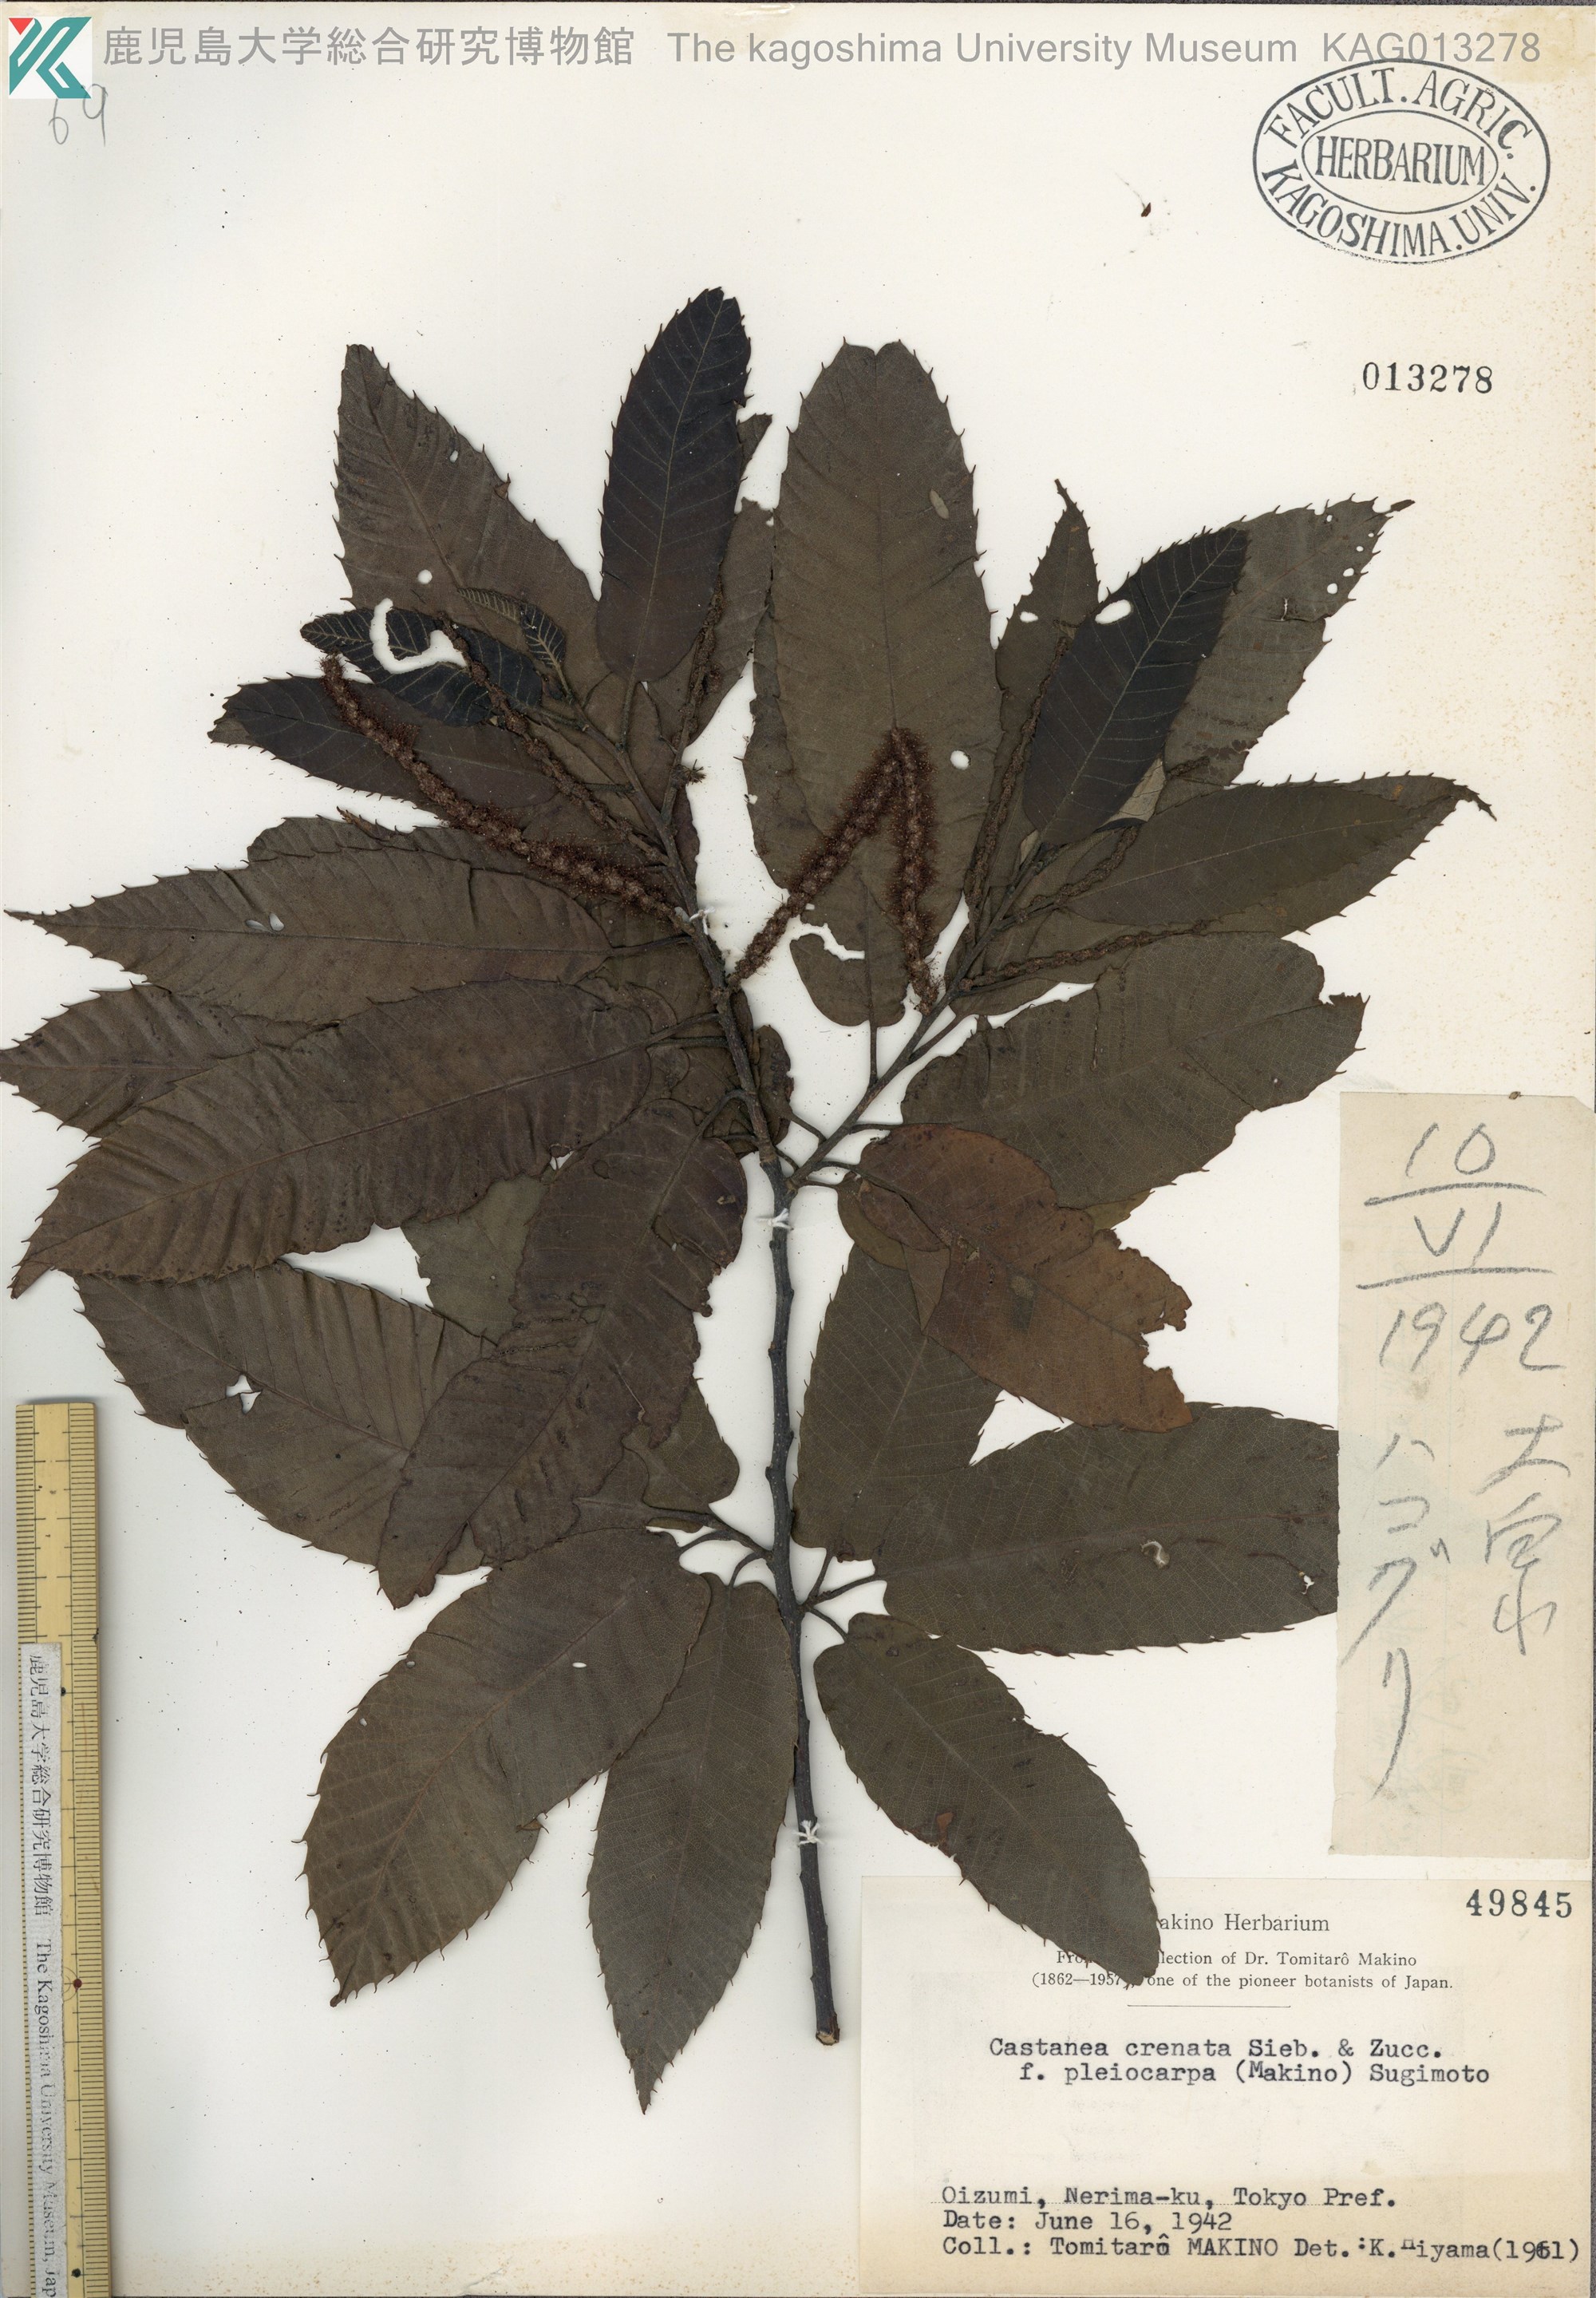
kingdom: Plantae
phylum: Tracheophyta
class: Magnoliopsida
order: Fagales
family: Fagaceae
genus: Castanea
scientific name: Castanea crenata
